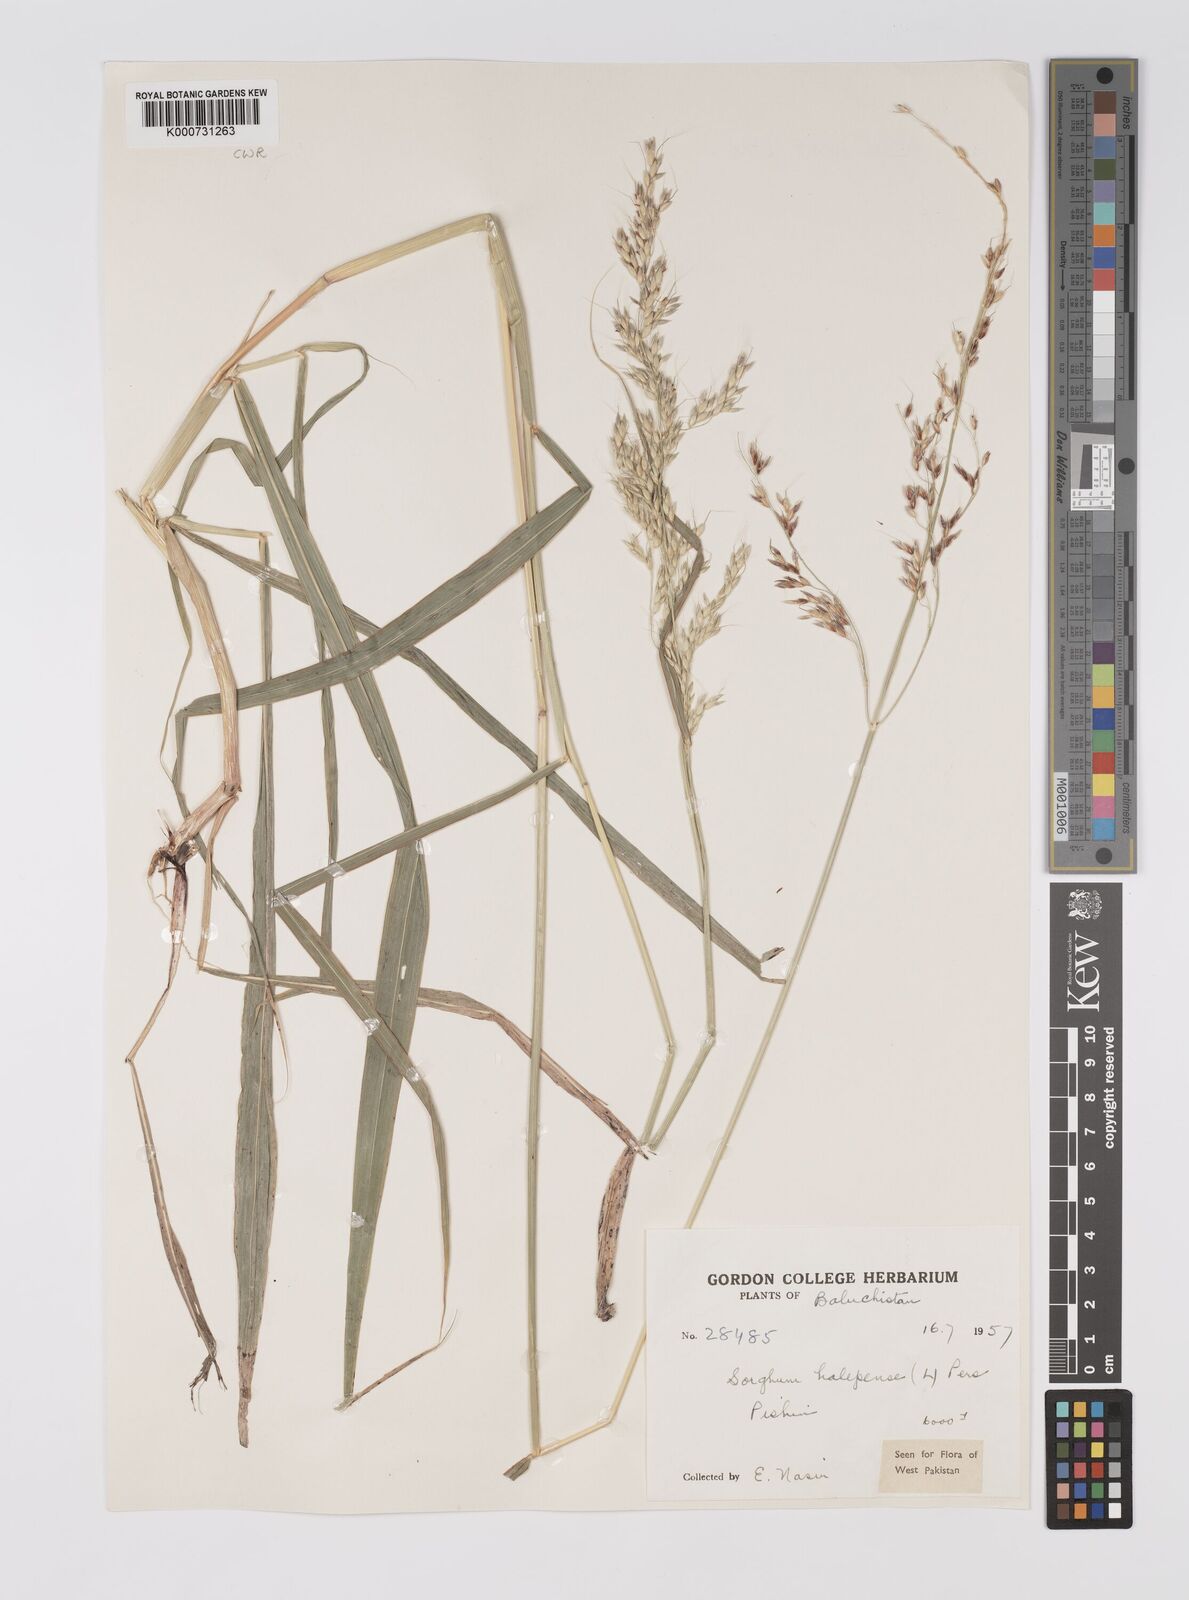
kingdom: Plantae
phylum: Tracheophyta
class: Liliopsida
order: Poales
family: Poaceae
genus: Sorghum
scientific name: Sorghum halepense
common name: Johnson-grass
